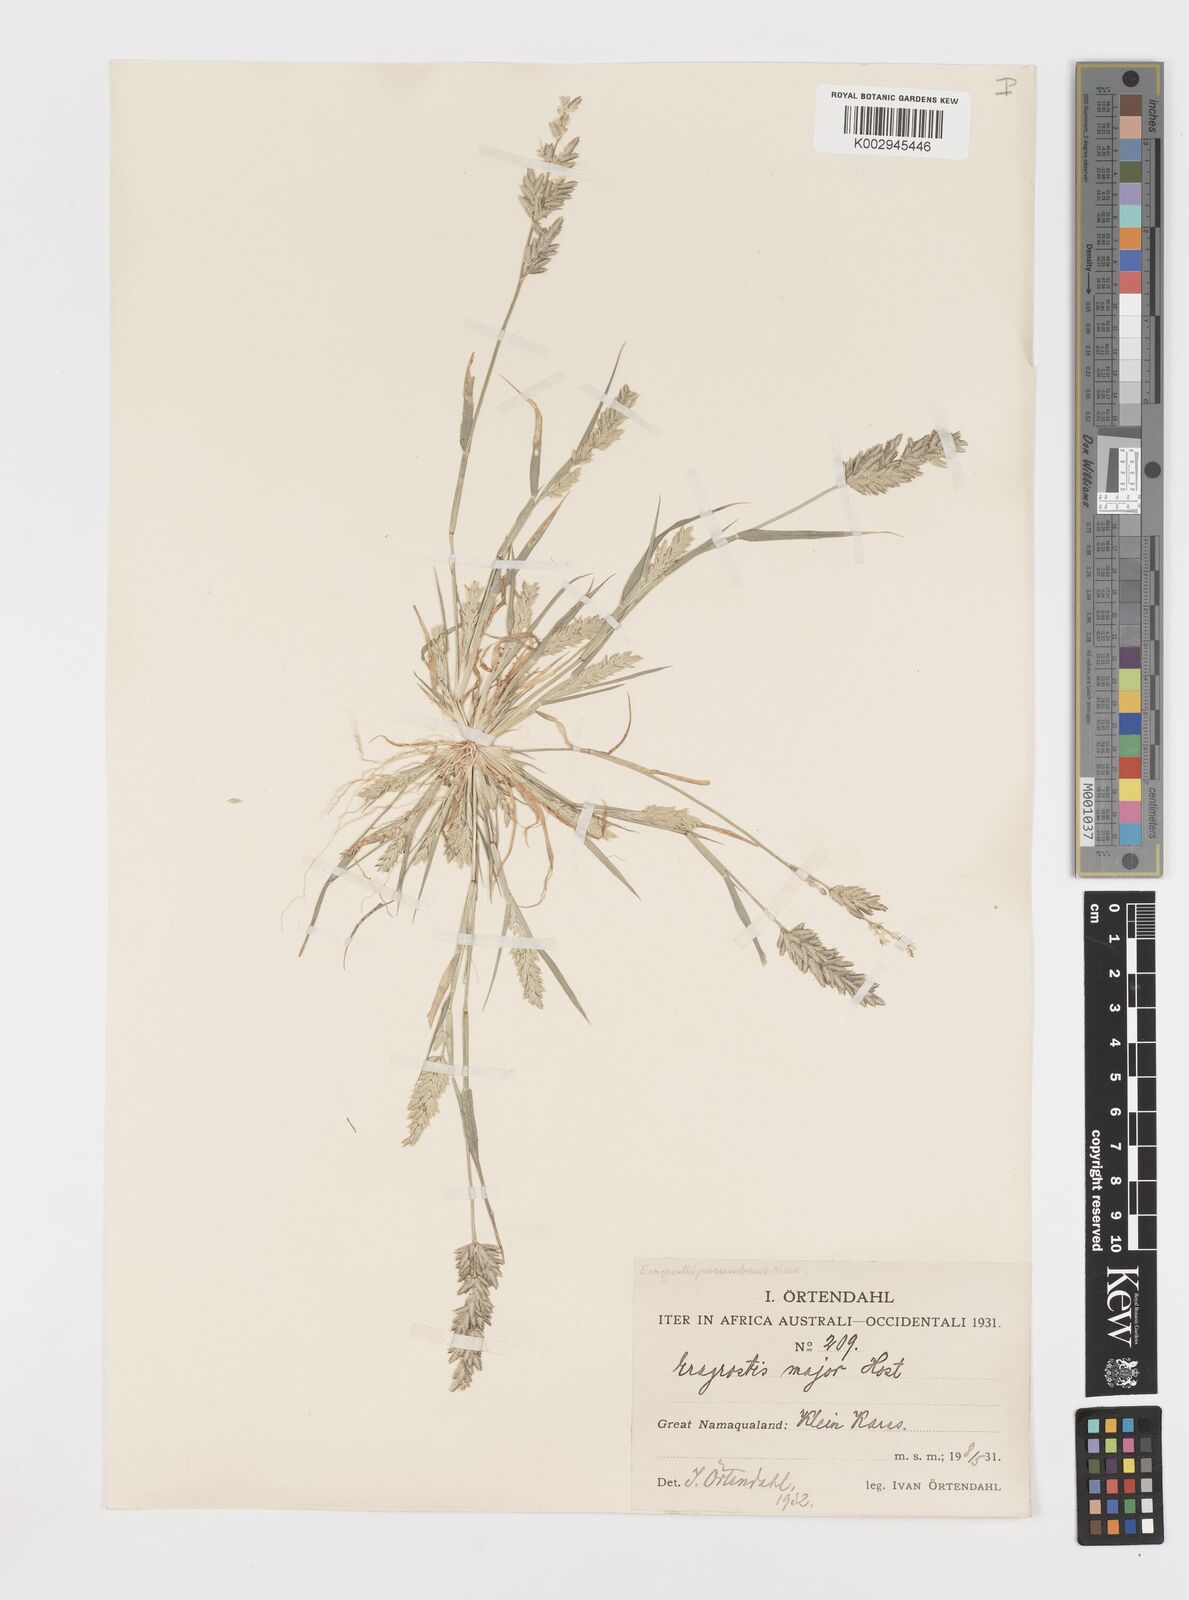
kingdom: Plantae
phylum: Tracheophyta
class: Liliopsida
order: Poales
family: Poaceae
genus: Eragrostis
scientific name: Eragrostis procumbens
